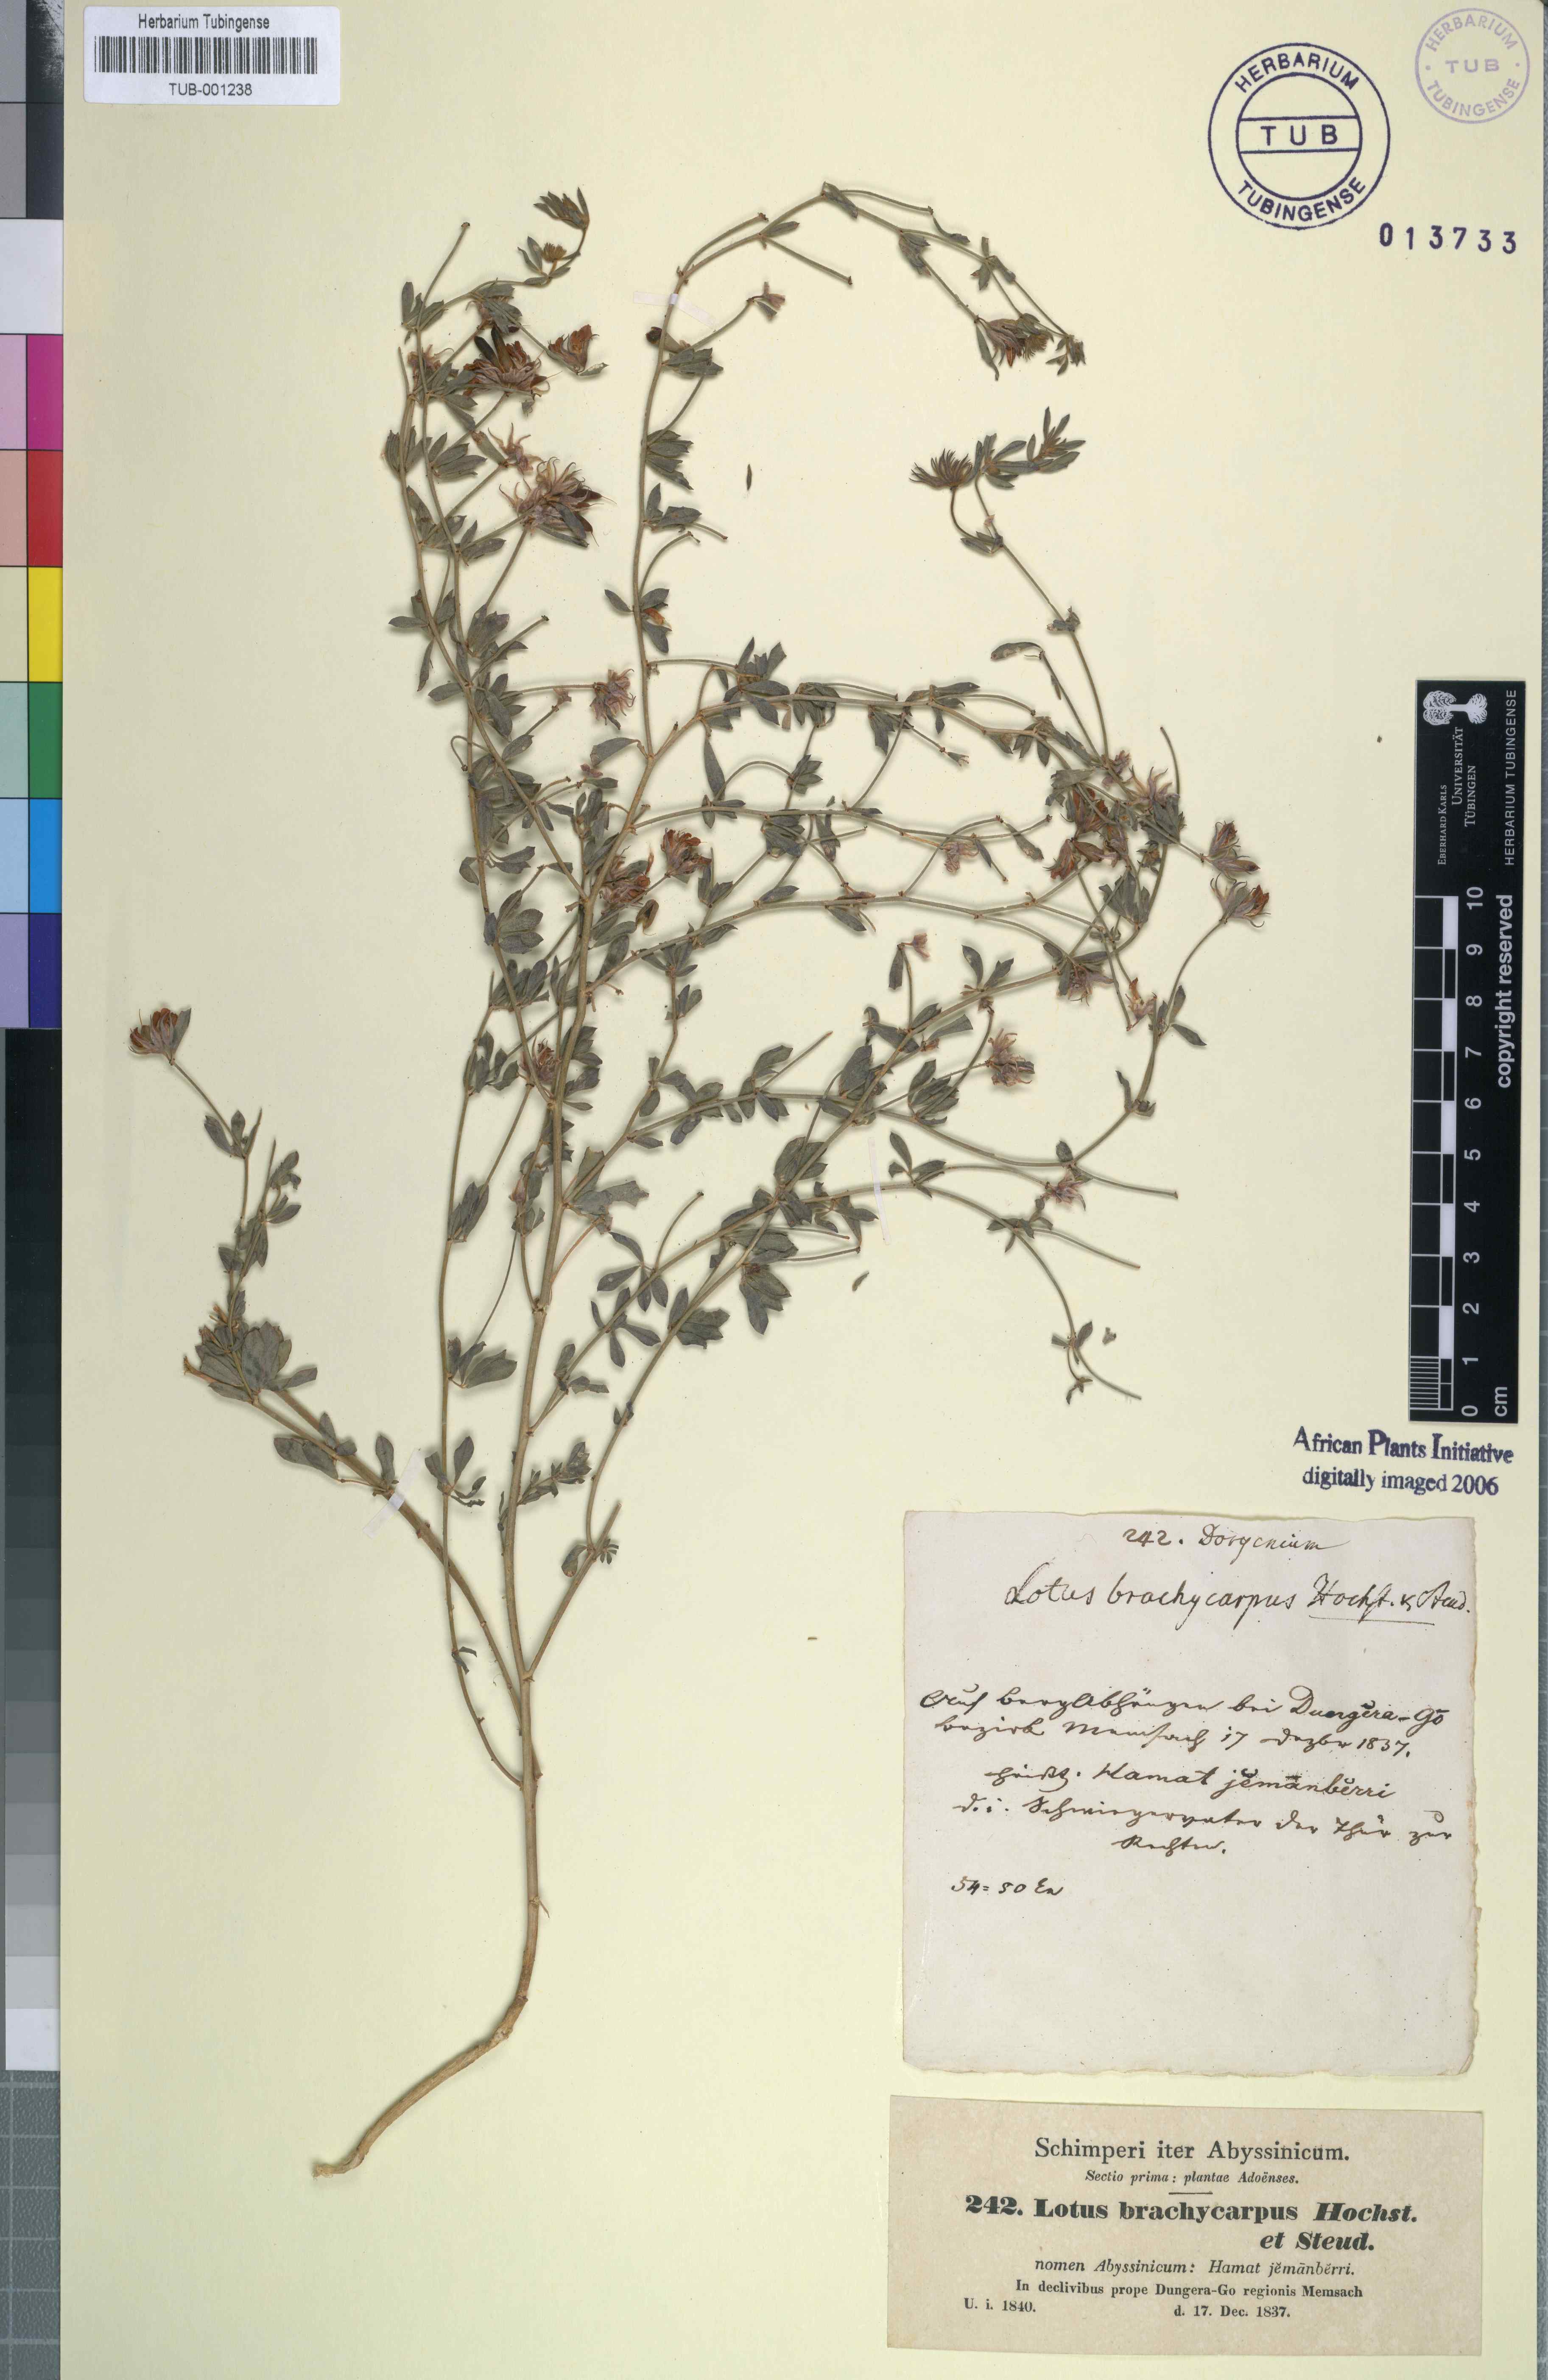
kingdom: Plantae
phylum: Tracheophyta
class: Magnoliopsida
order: Fabales
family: Fabaceae
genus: Lotus
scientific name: Lotus quinatus
